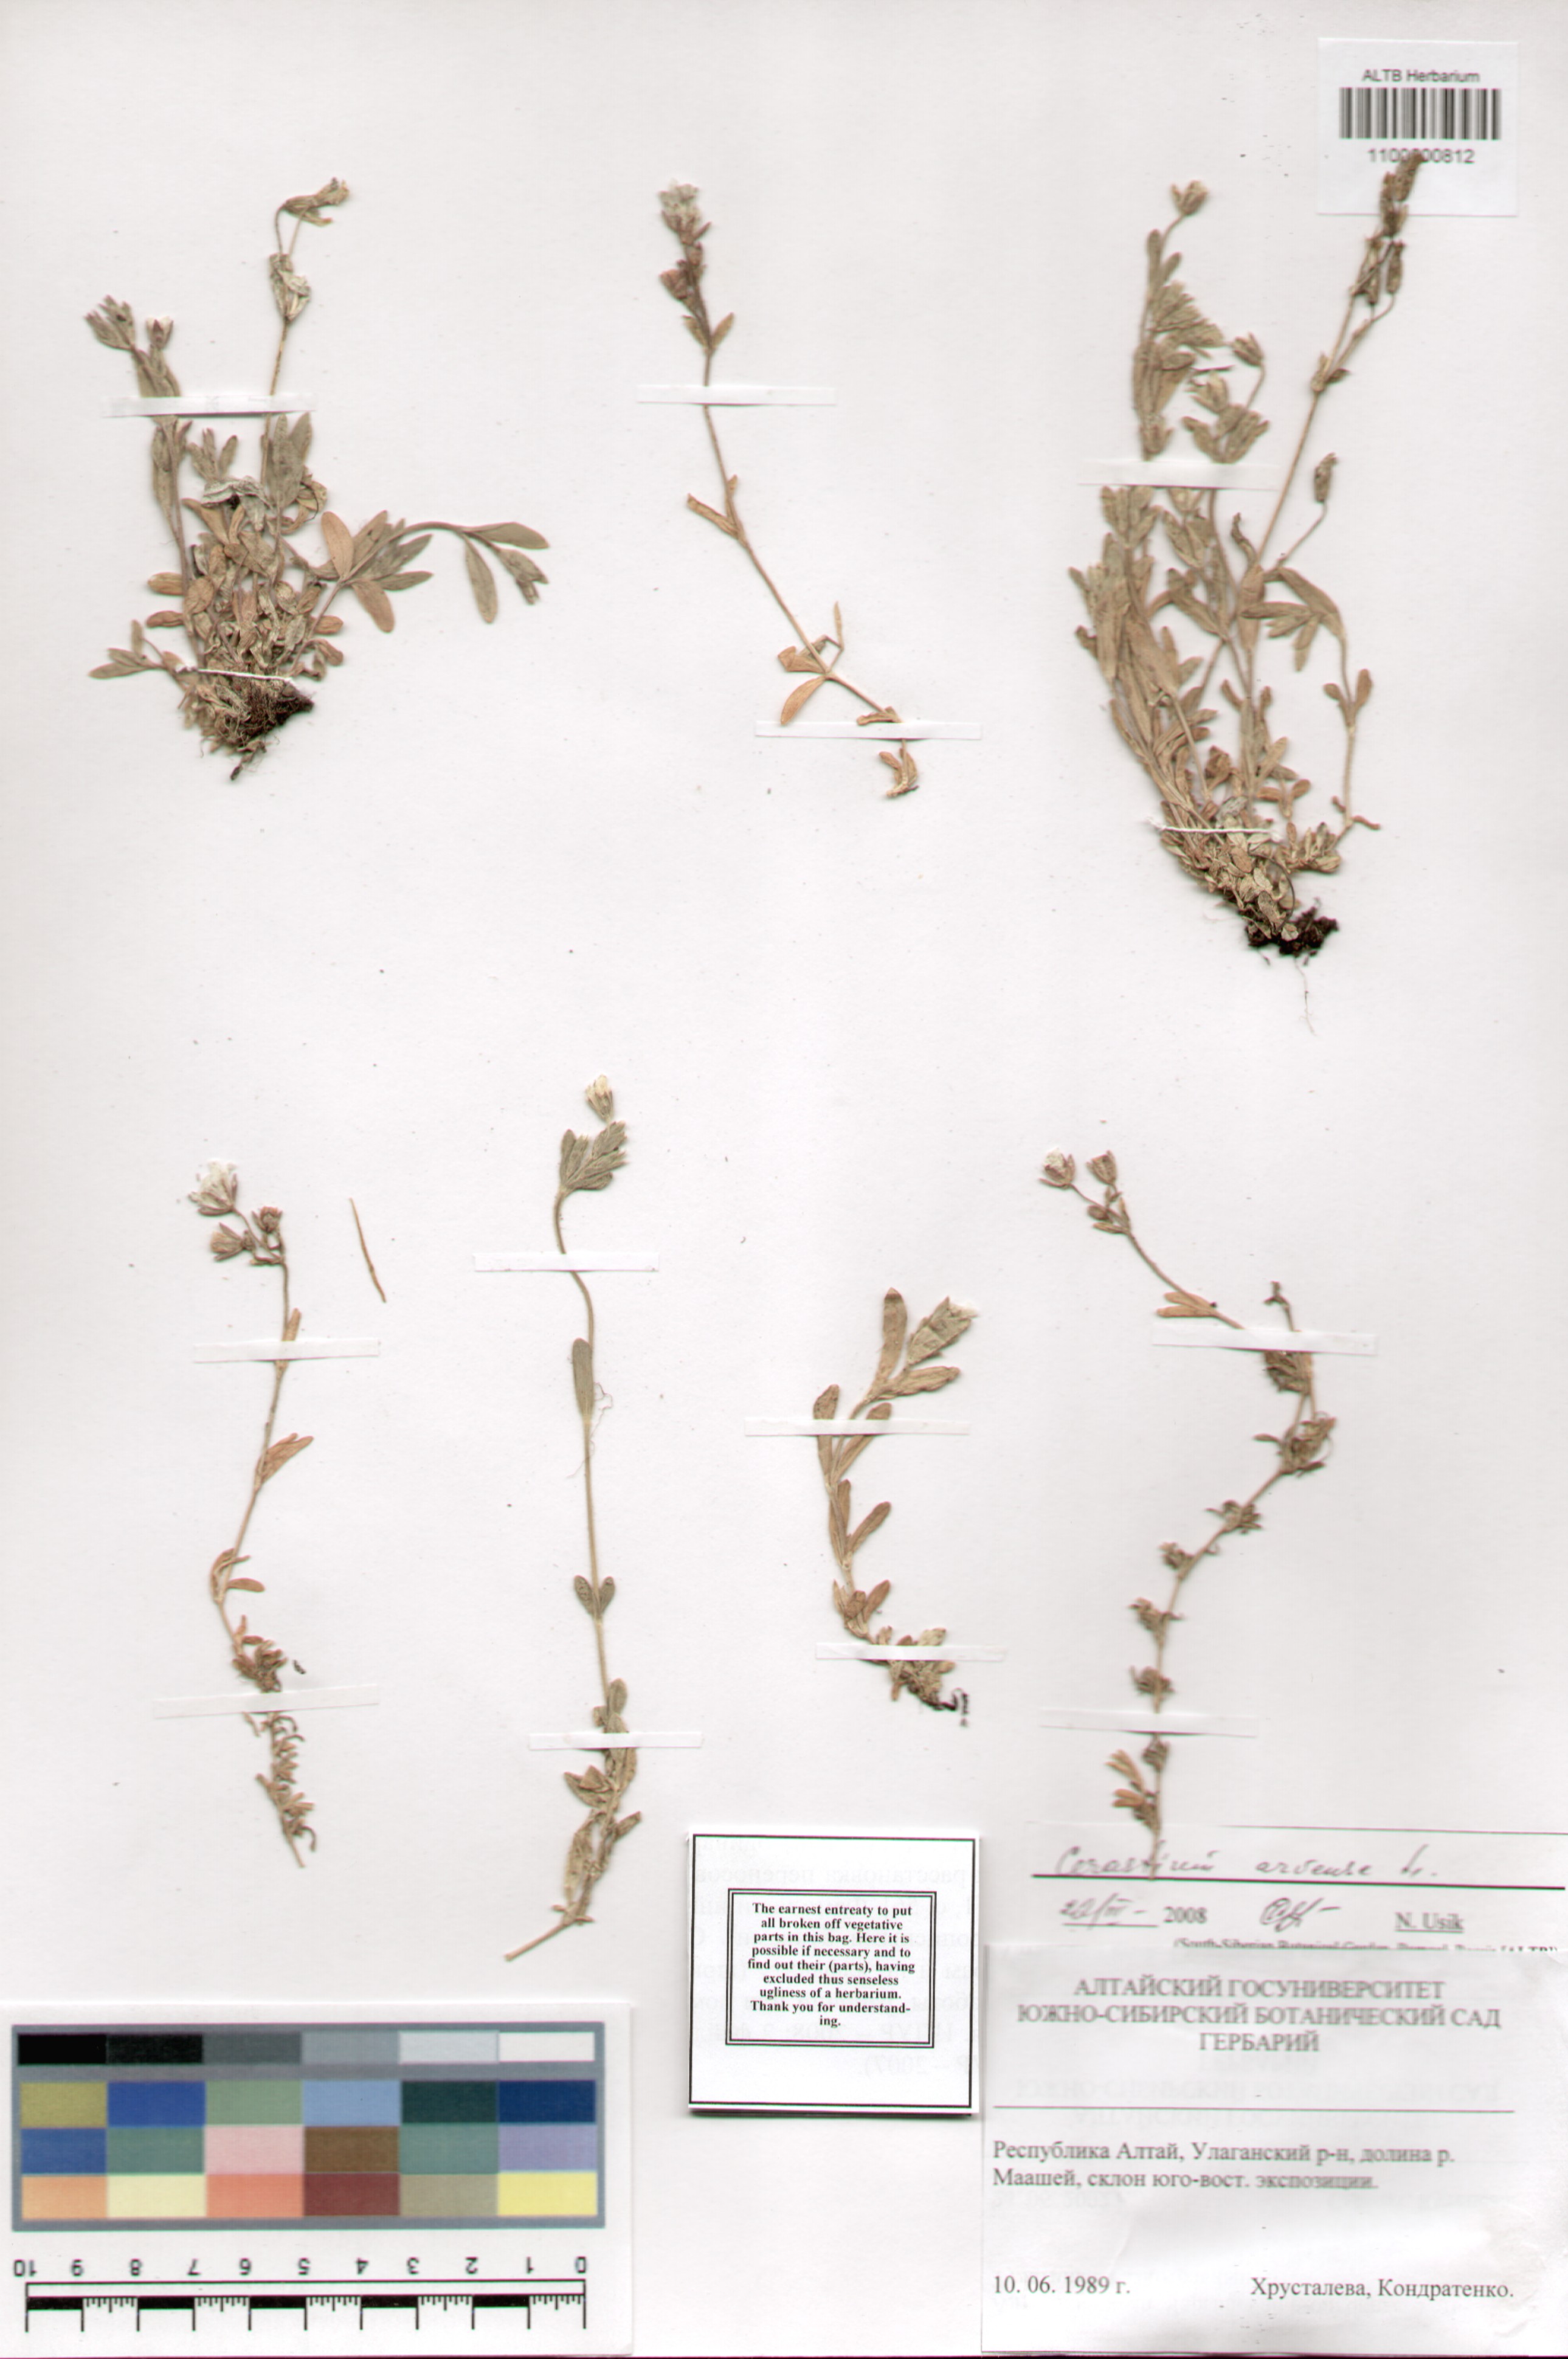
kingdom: Plantae
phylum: Tracheophyta
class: Magnoliopsida
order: Caryophyllales
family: Caryophyllaceae
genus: Cerastium
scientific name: Cerastium arvense
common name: Field mouse-ear
